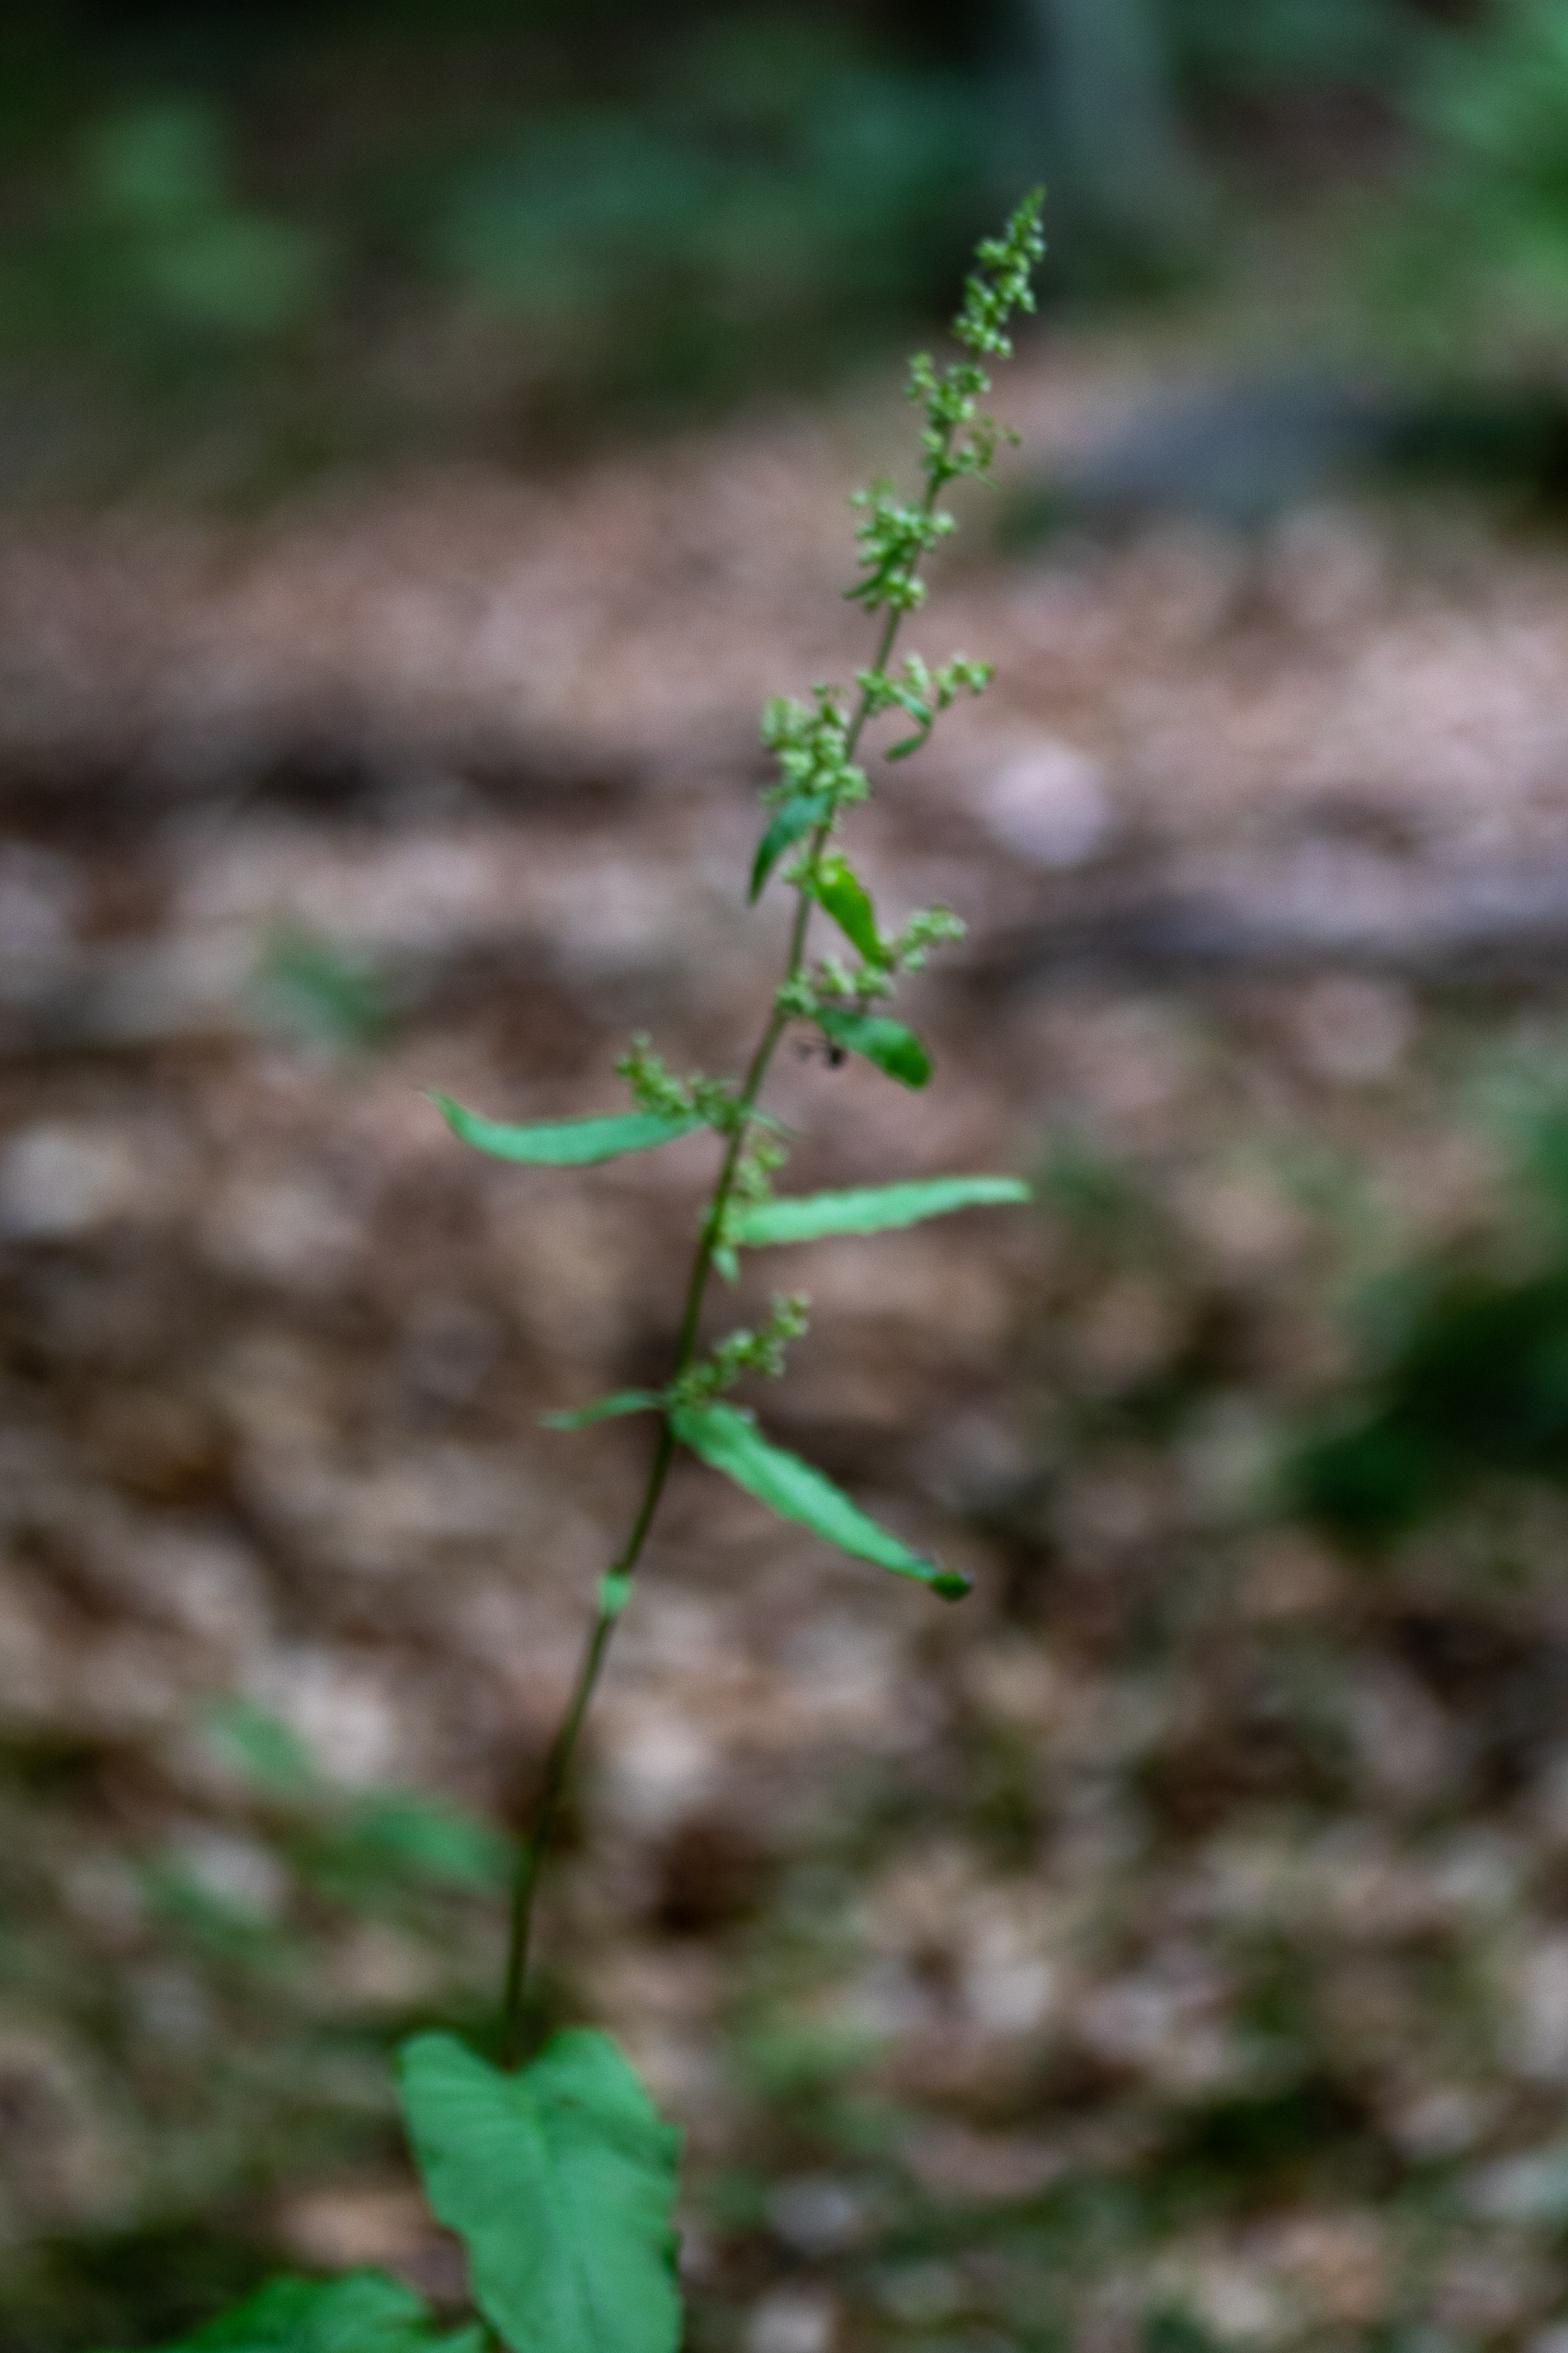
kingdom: Plantae
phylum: Tracheophyta
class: Magnoliopsida
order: Caryophyllales
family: Polygonaceae
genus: Rumex
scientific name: Rumex sanguineus
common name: Skov-skræppe
